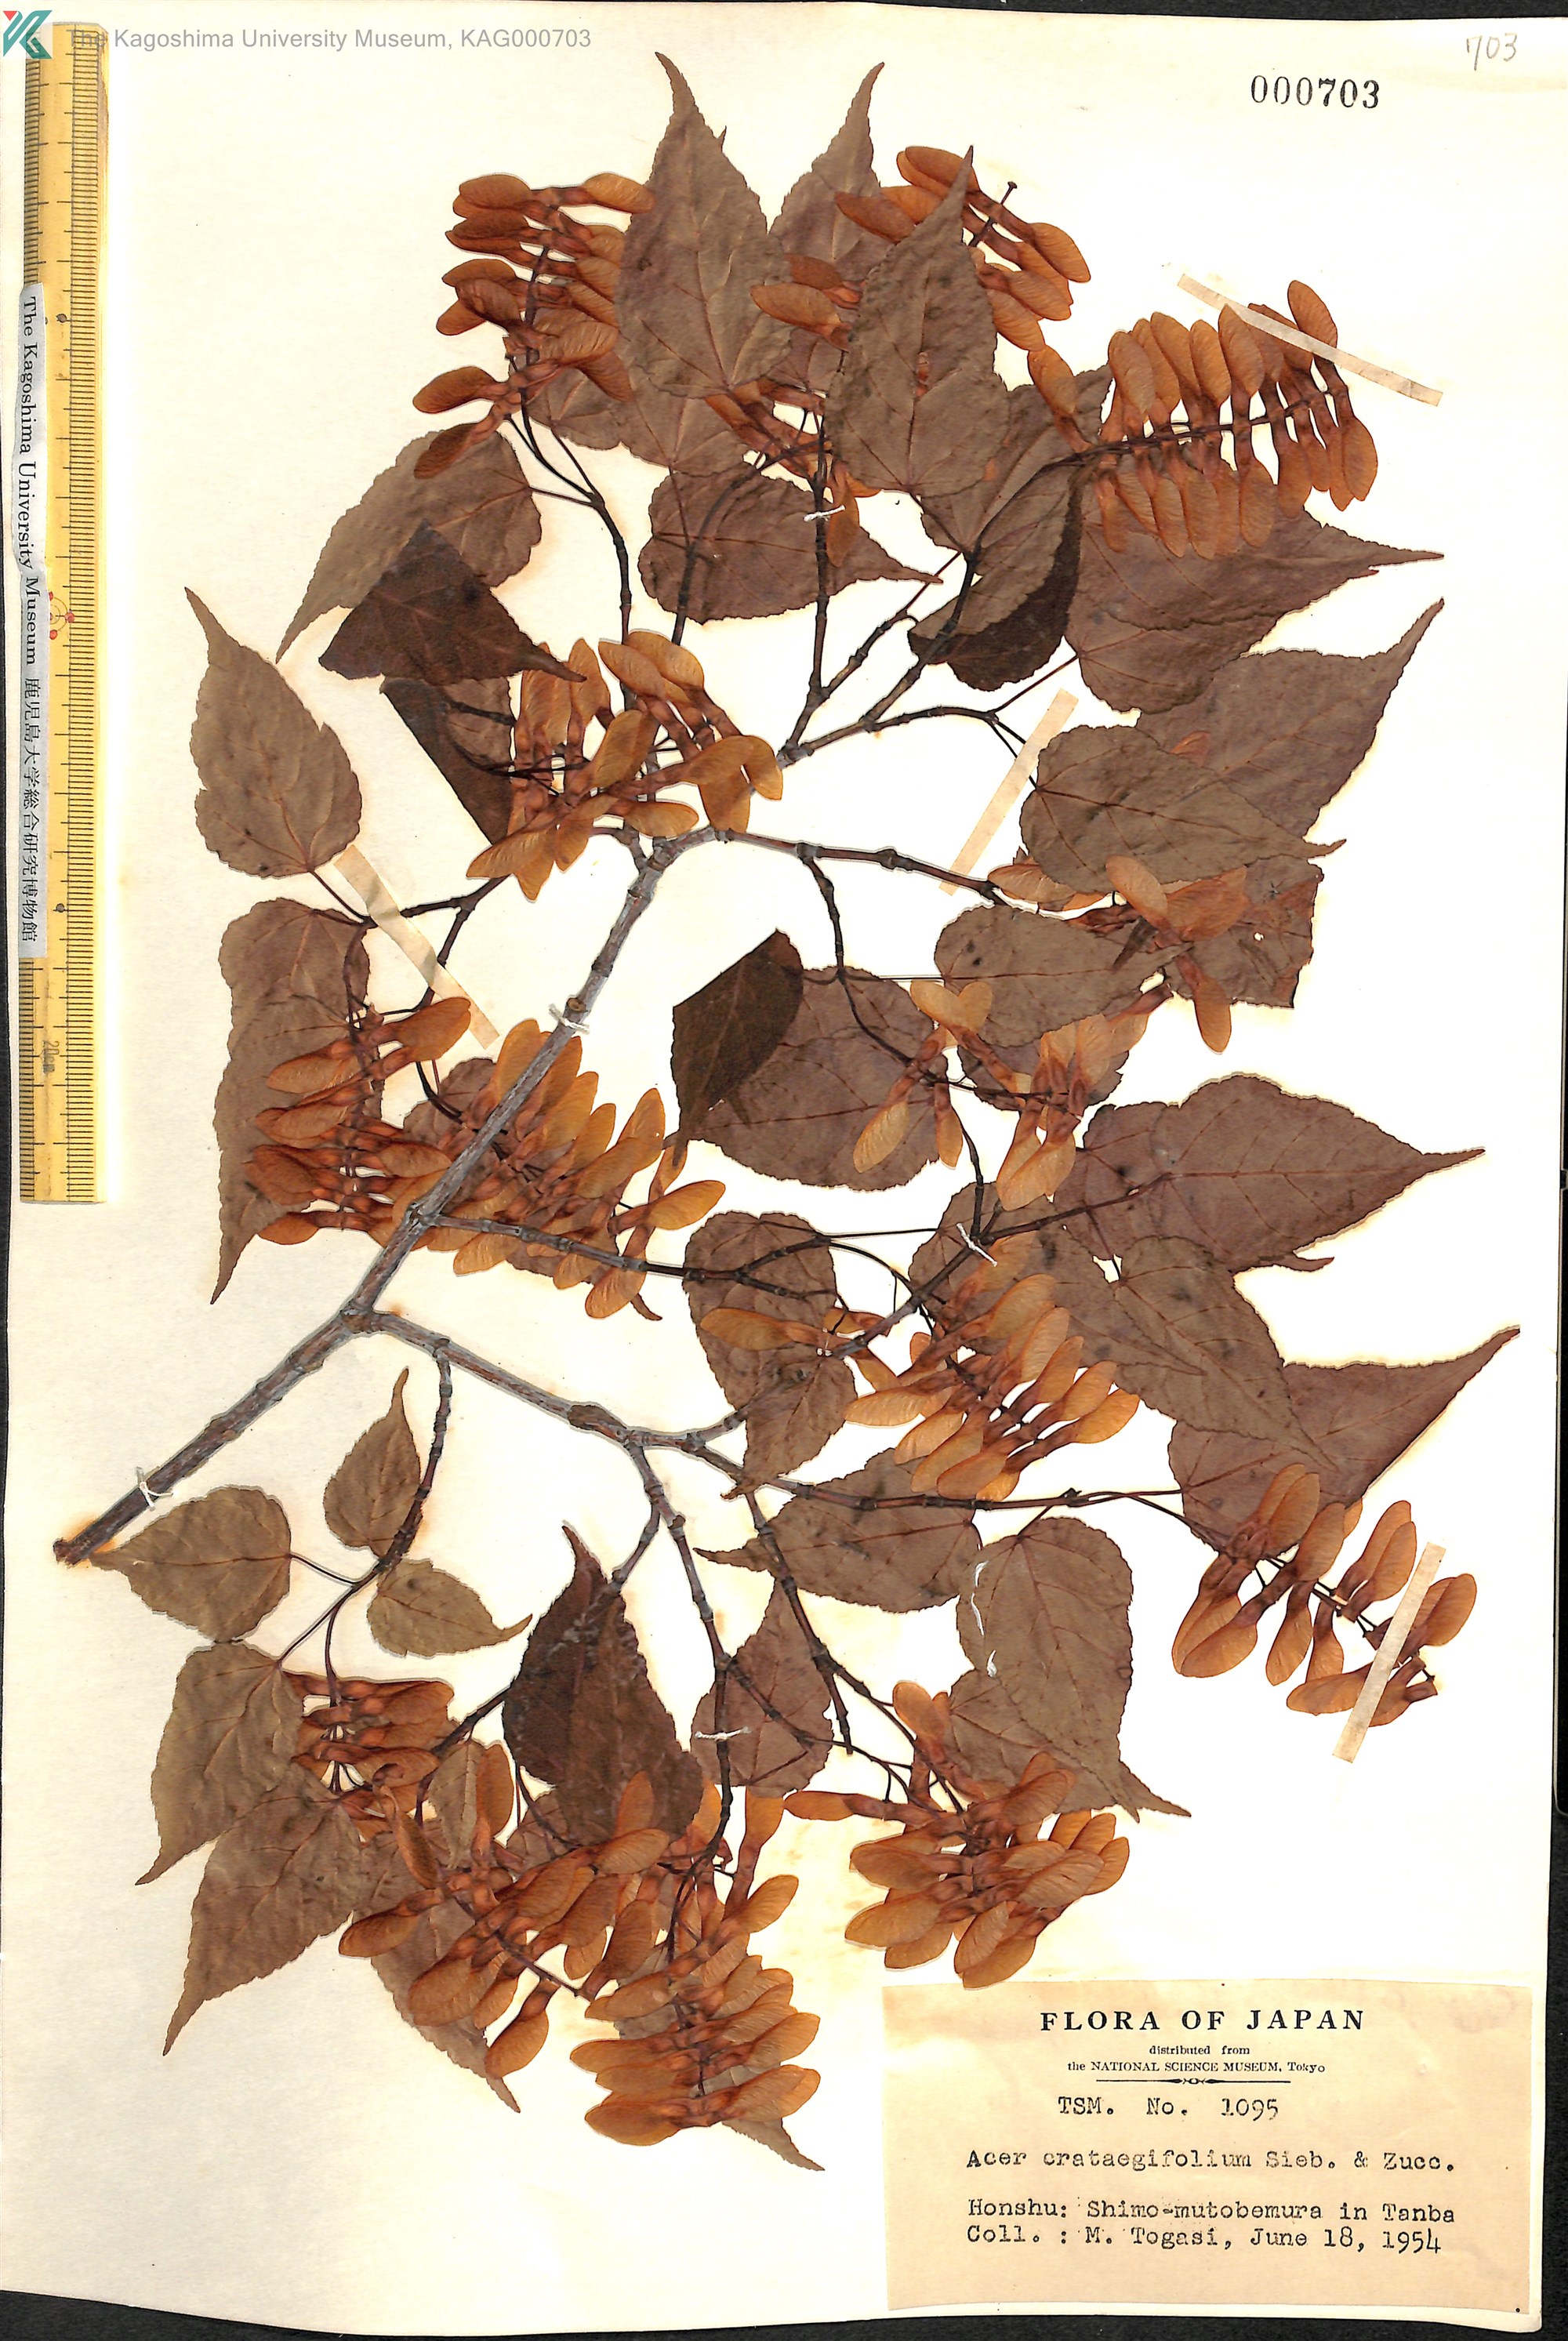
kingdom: Plantae
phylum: Tracheophyta
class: Magnoliopsida
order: Sapindales
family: Sapindaceae
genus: Acer
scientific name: Acer crataegifolium
